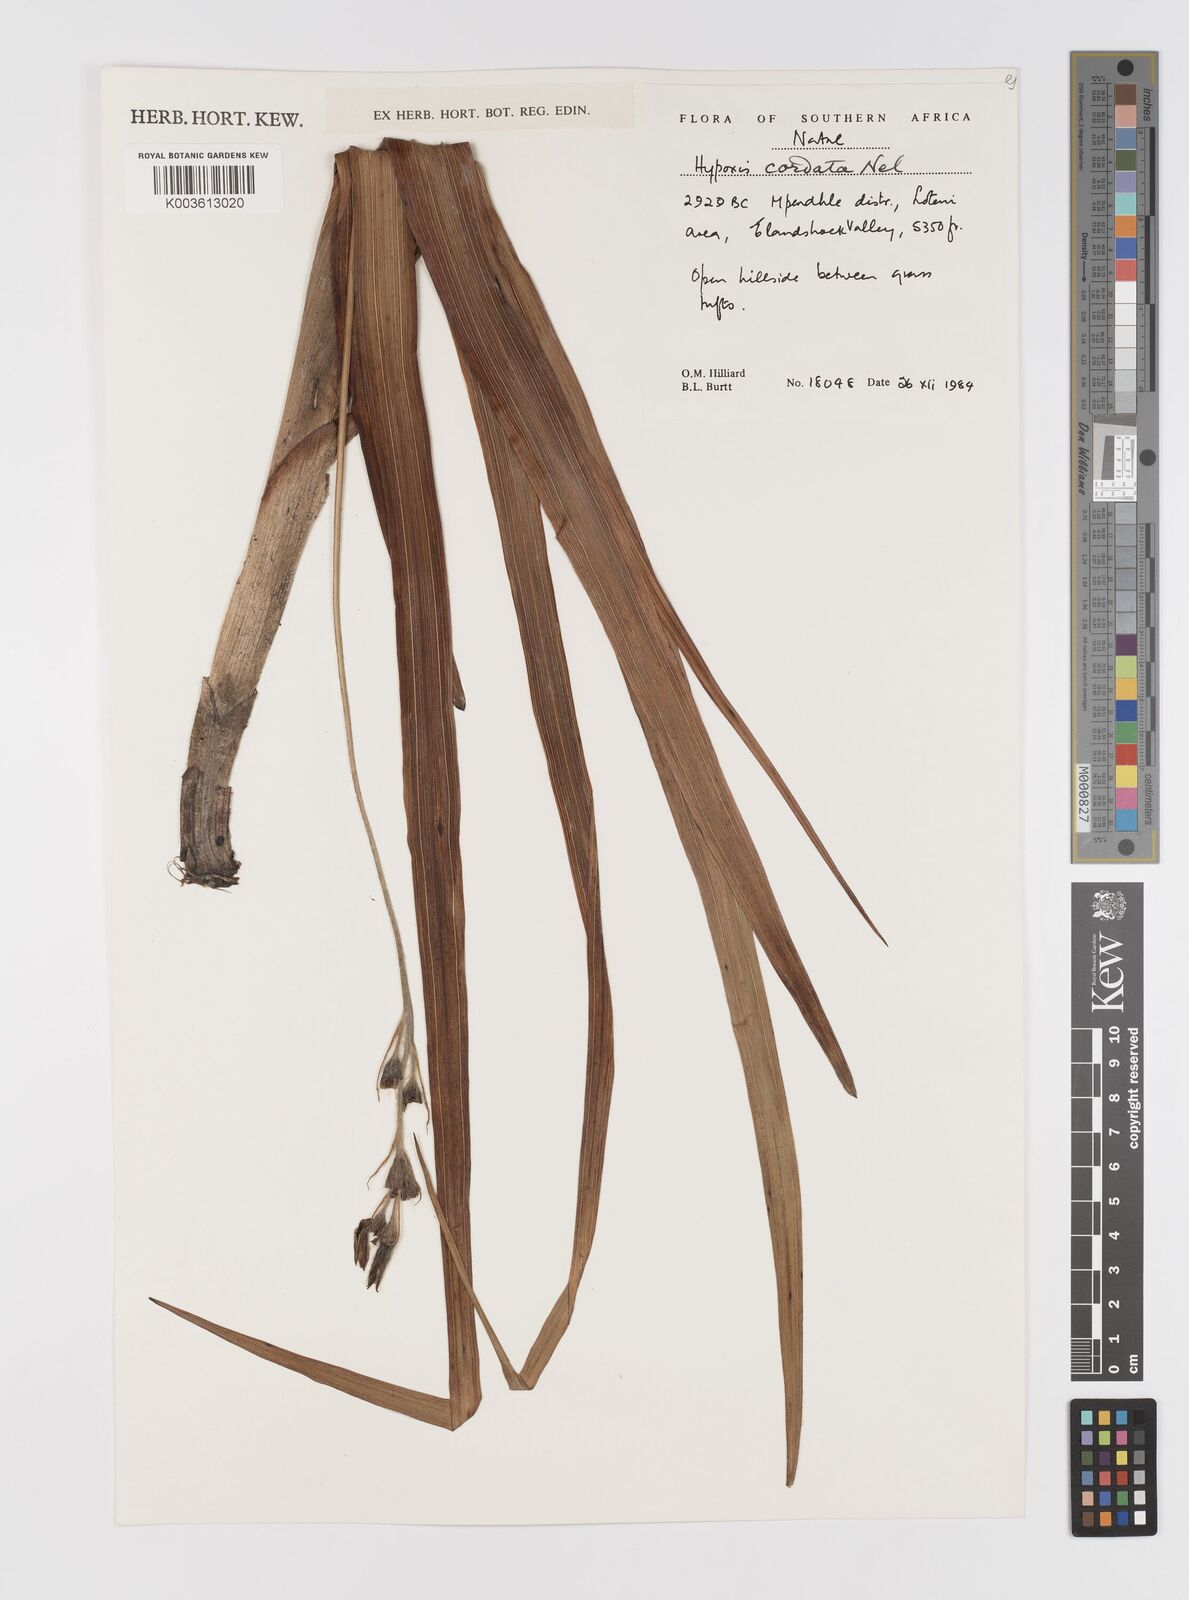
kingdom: Plantae
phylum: Tracheophyta
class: Liliopsida
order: Asparagales
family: Hypoxidaceae
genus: Hypoxis
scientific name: Hypoxis rigidula
